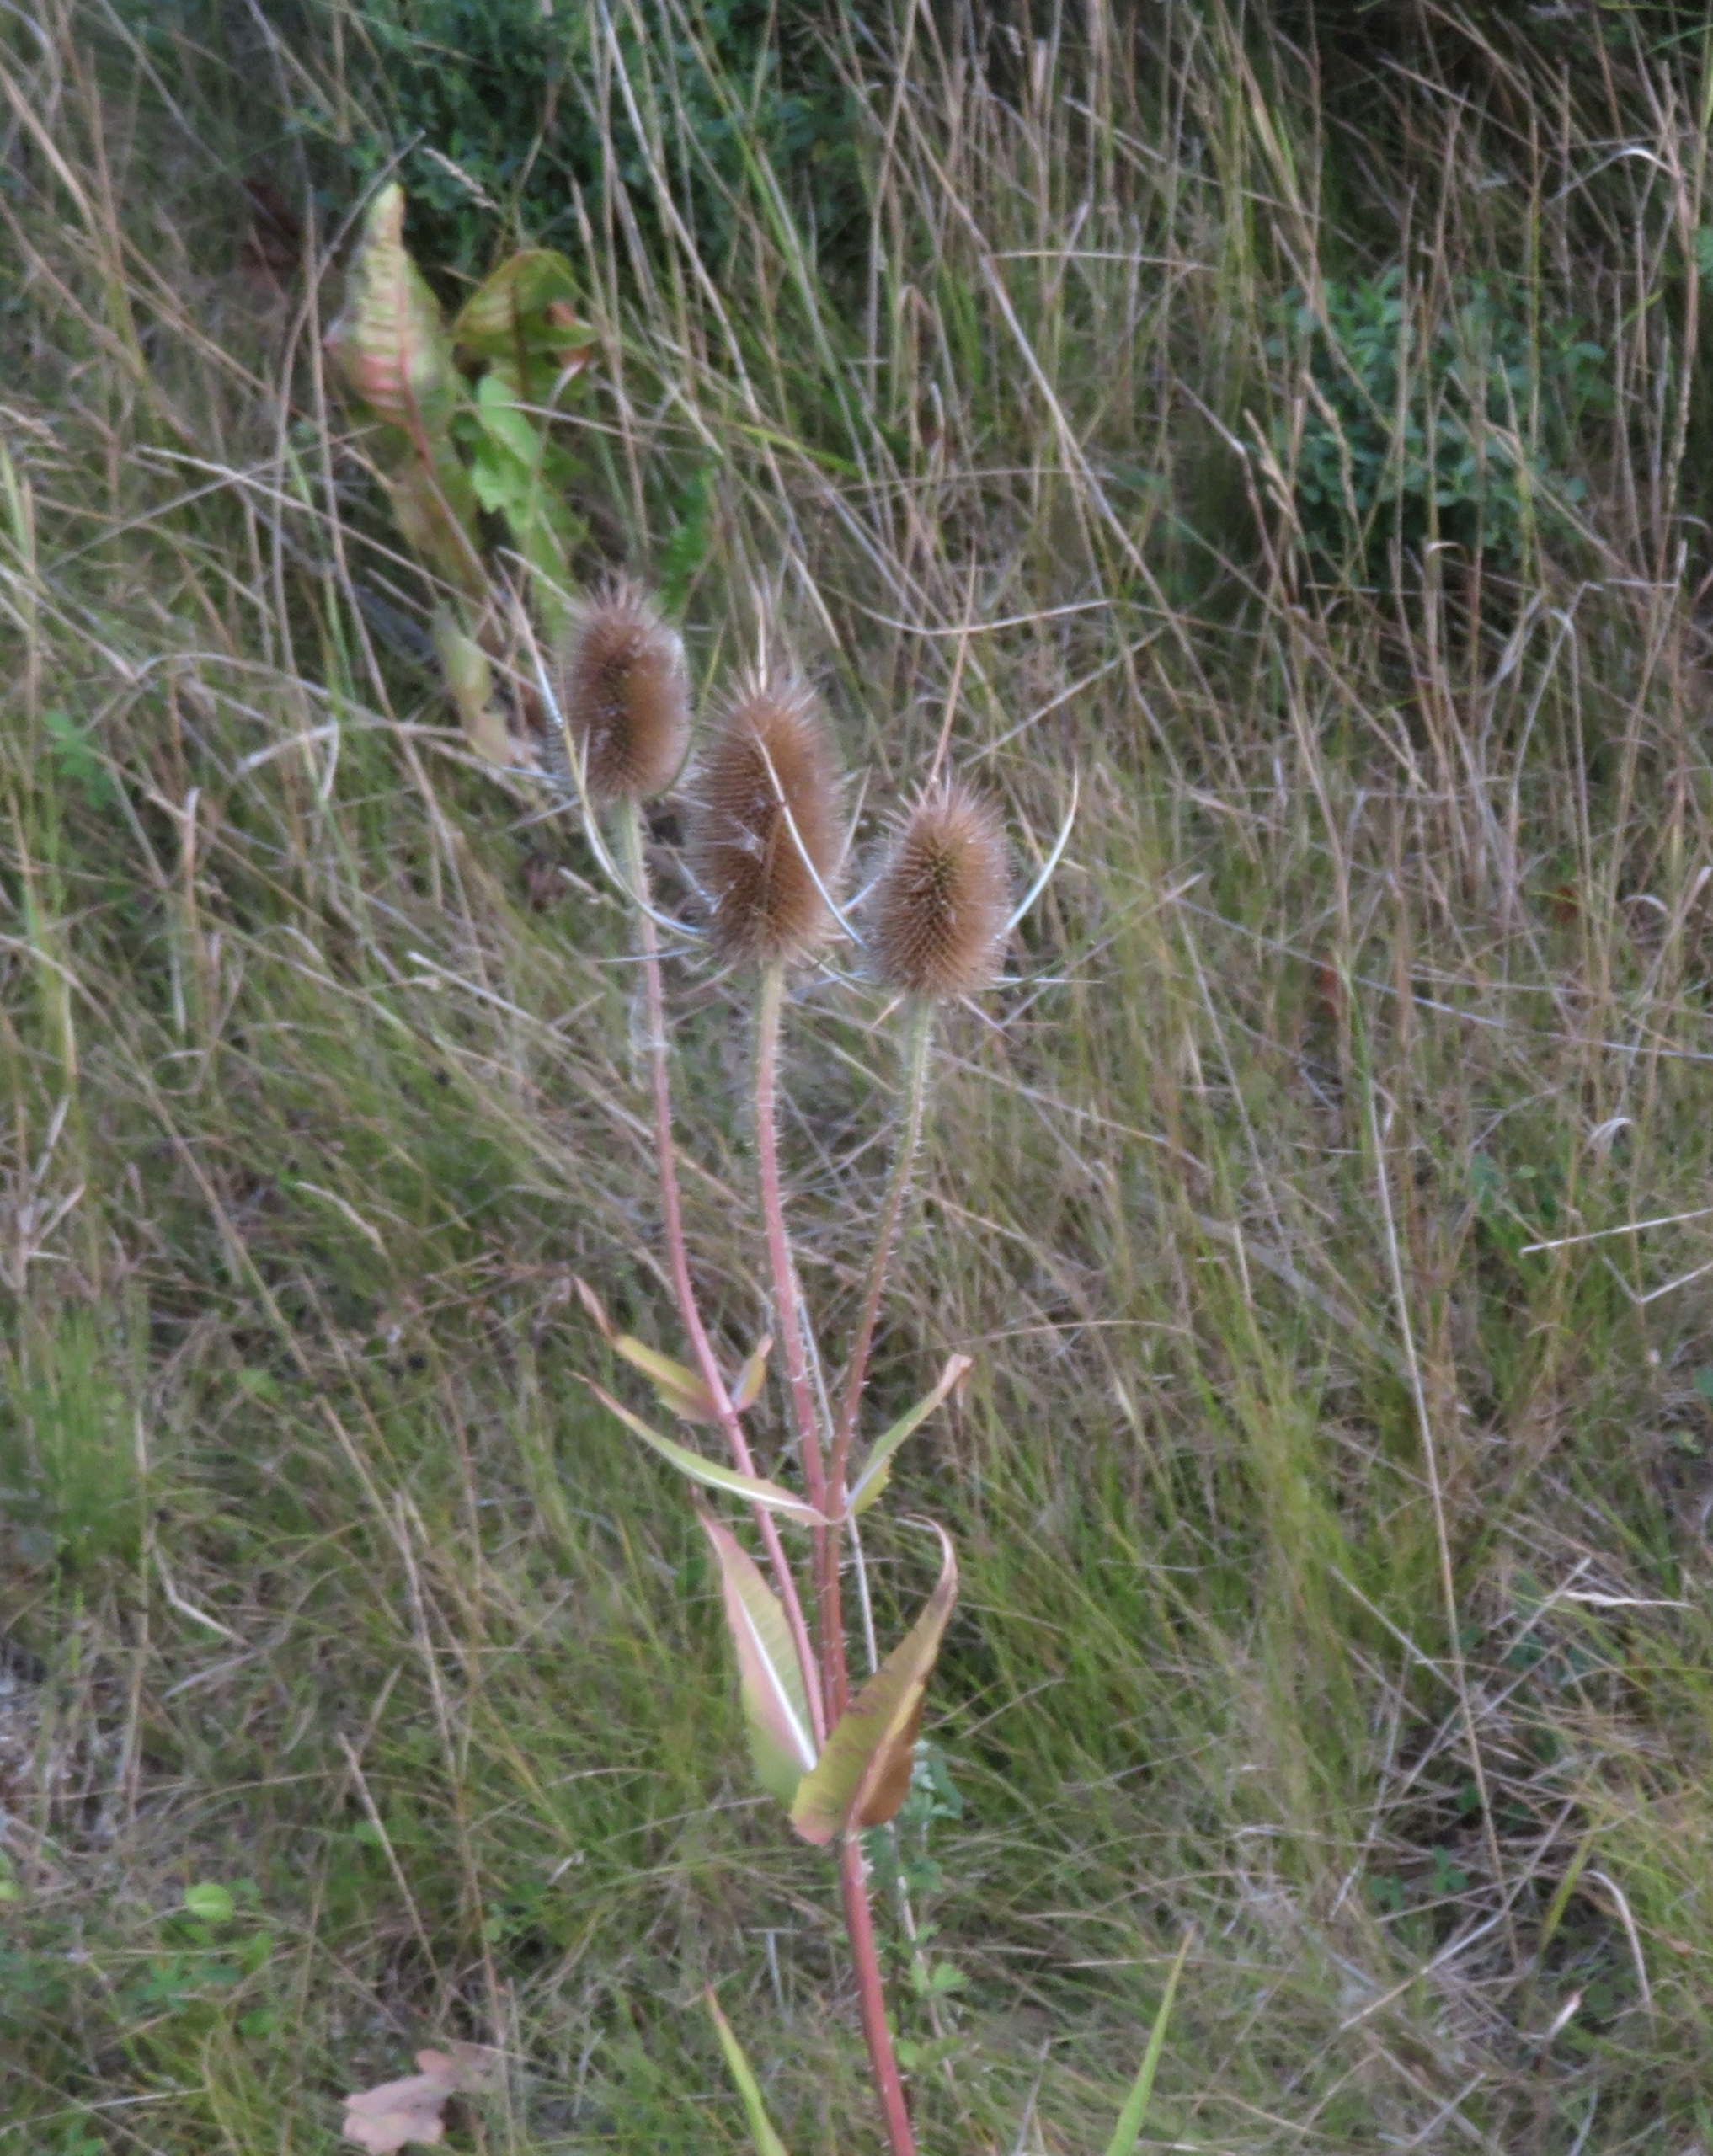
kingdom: Plantae
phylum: Tracheophyta
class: Magnoliopsida
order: Dipsacales
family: Caprifoliaceae
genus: Dipsacus
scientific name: Dipsacus fullonum
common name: Gærde-kartebolle
